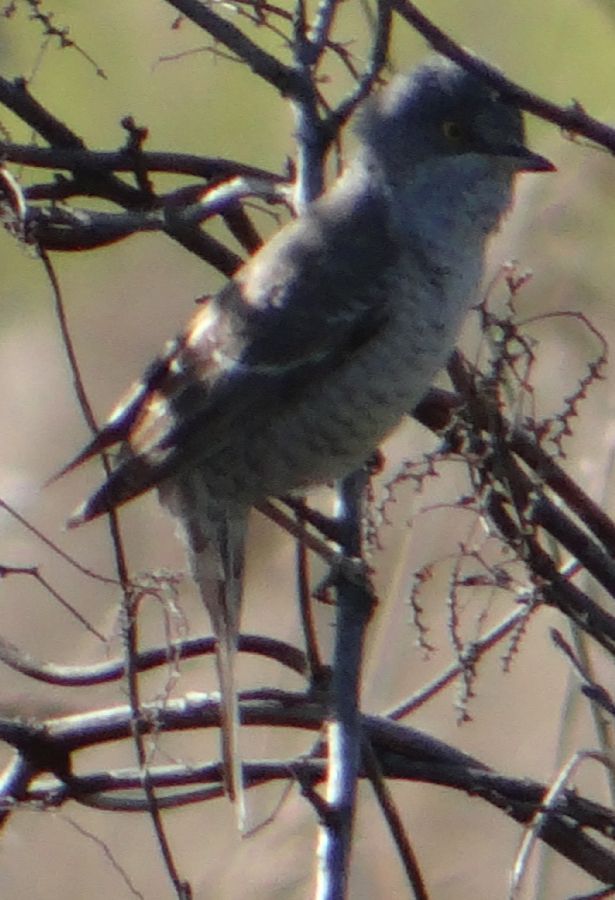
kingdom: Animalia
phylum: Chordata
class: Aves
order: Passeriformes
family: Sylviidae
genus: Sylvia
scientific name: Sylvia nisoria
